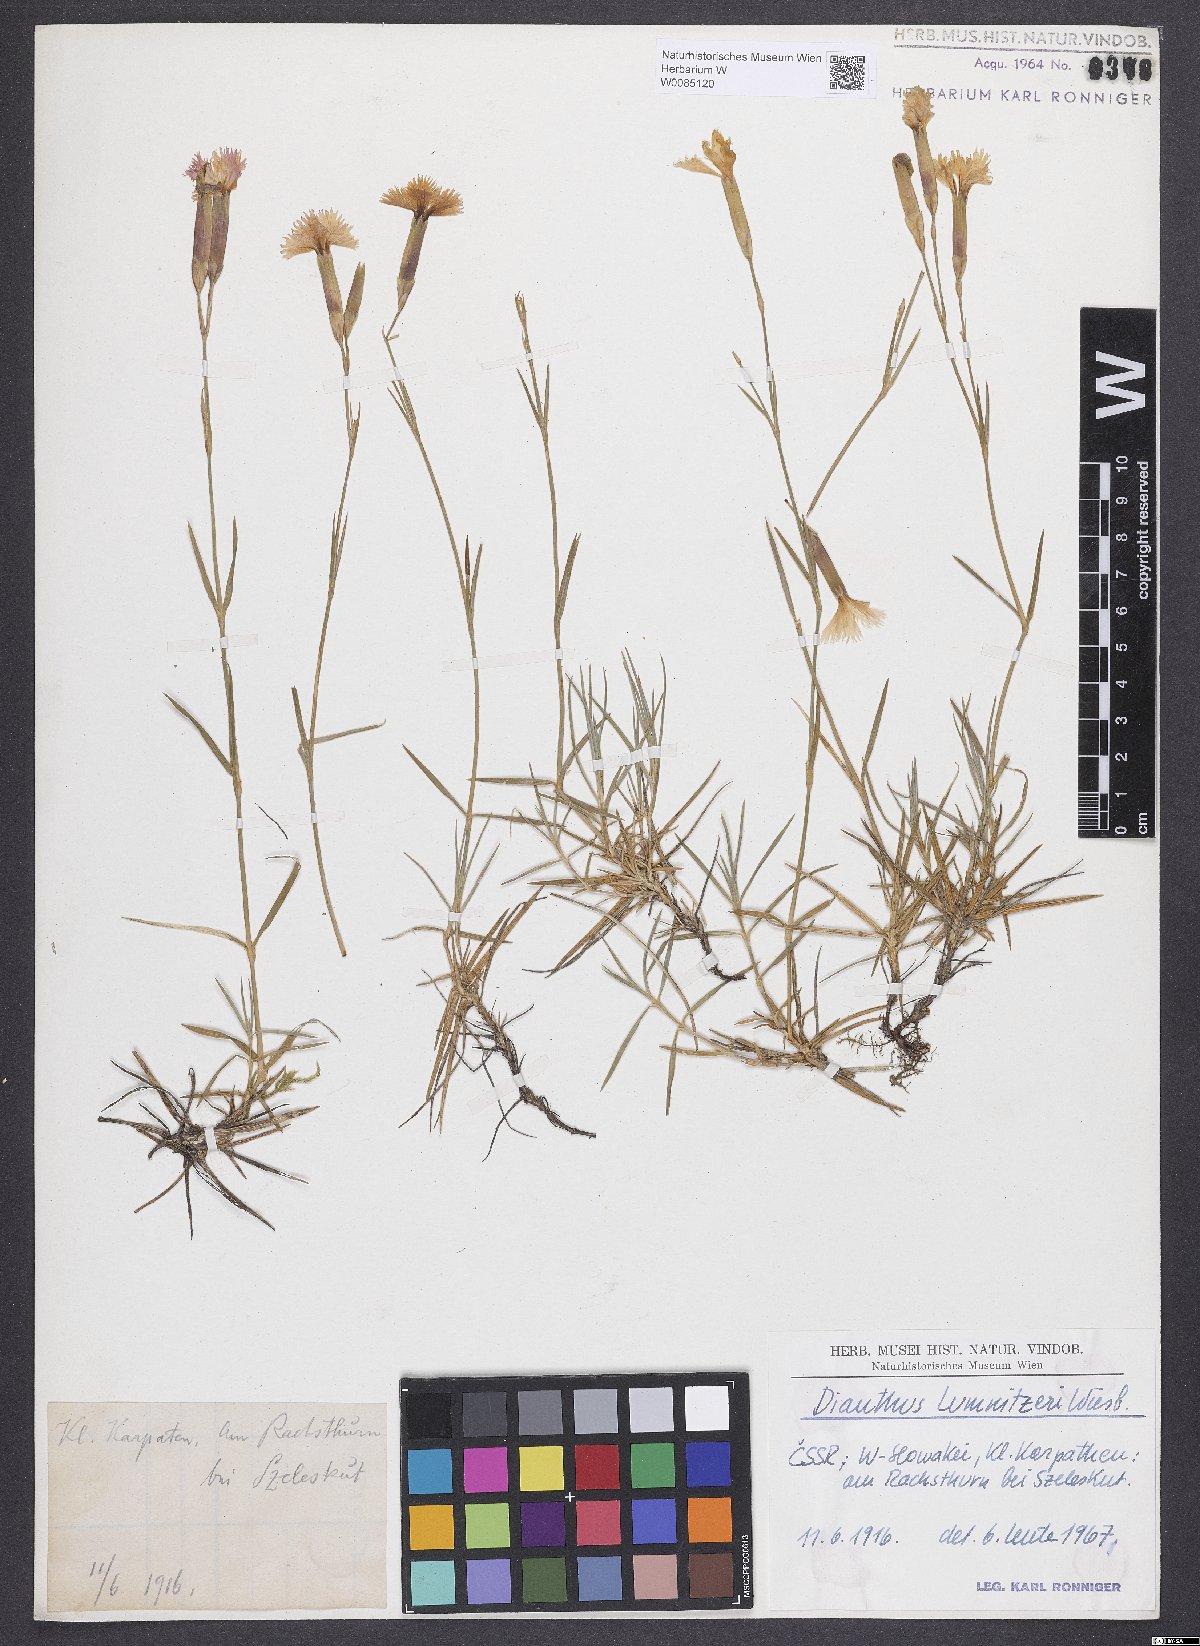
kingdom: Plantae
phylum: Tracheophyta
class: Magnoliopsida
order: Caryophyllales
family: Caryophyllaceae
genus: Dianthus
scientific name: Dianthus praecox
